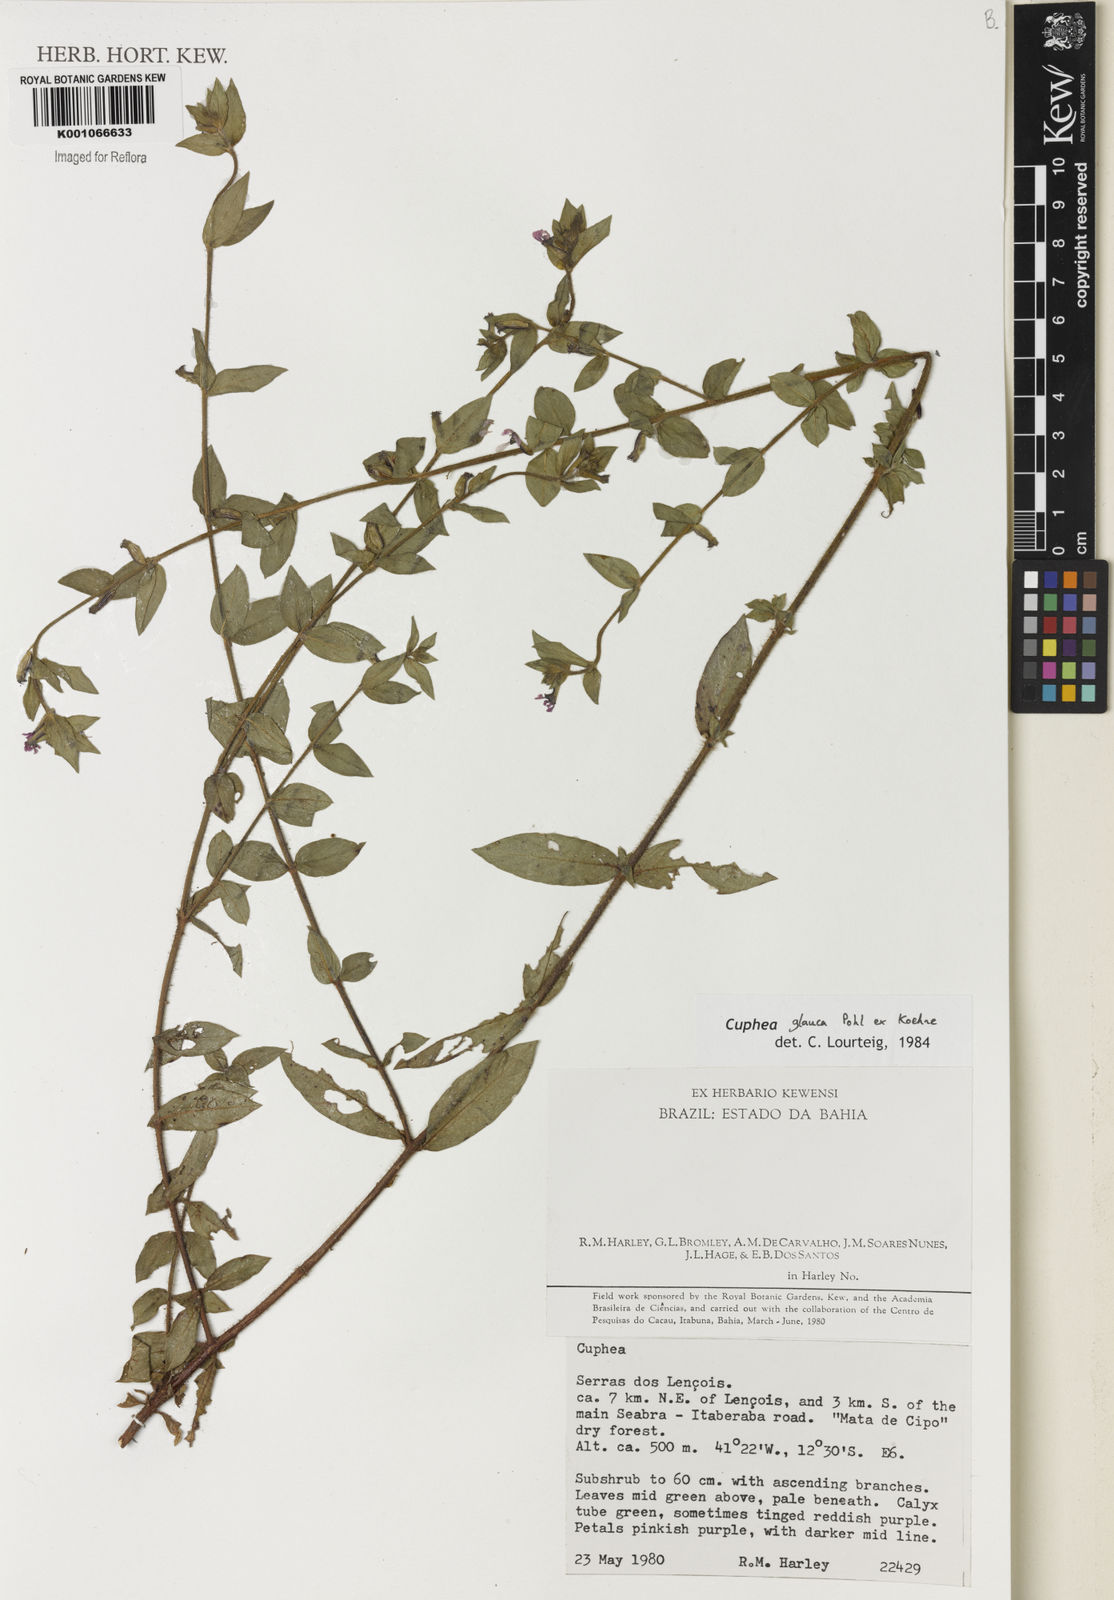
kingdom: Plantae
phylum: Tracheophyta
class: Magnoliopsida
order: Myrtales
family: Lythraceae
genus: Cuphea
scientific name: Cuphea glauca
